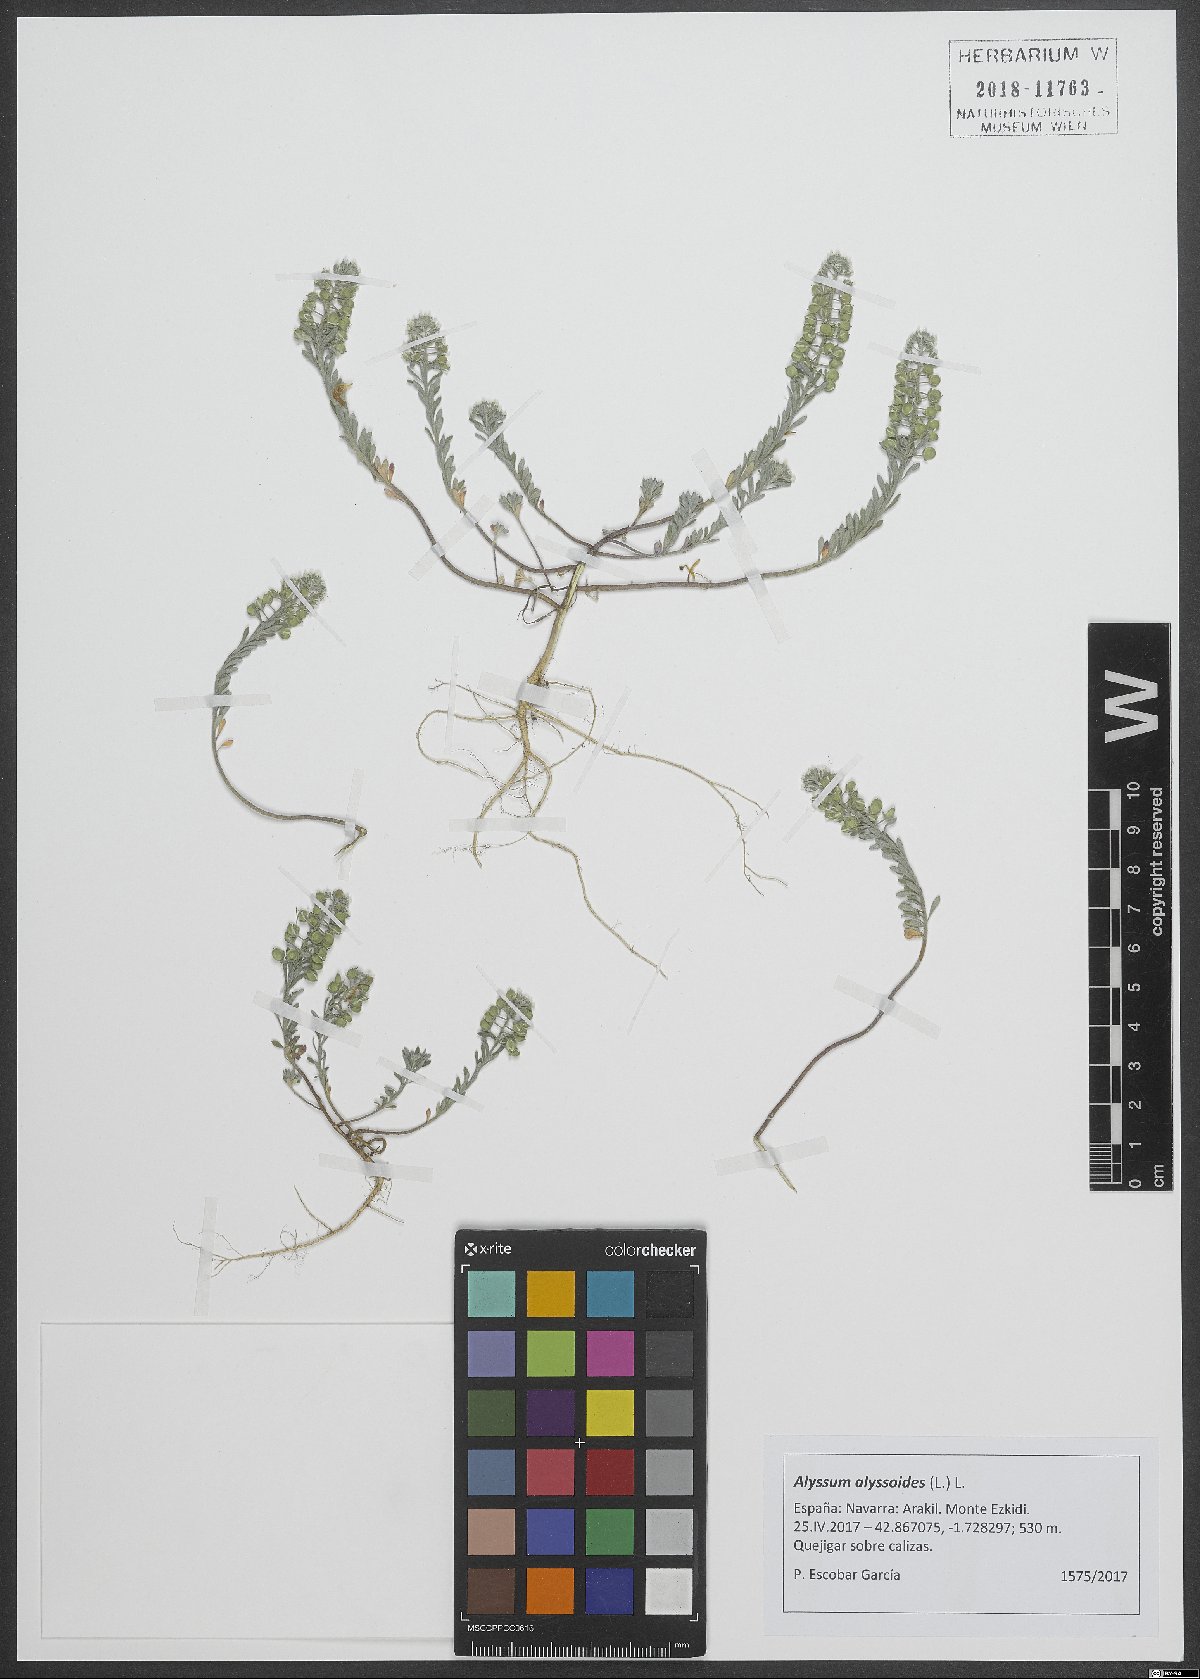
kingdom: Plantae
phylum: Tracheophyta
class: Magnoliopsida
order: Brassicales
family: Brassicaceae
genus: Alyssum
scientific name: Alyssum alyssoides
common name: Small alison
